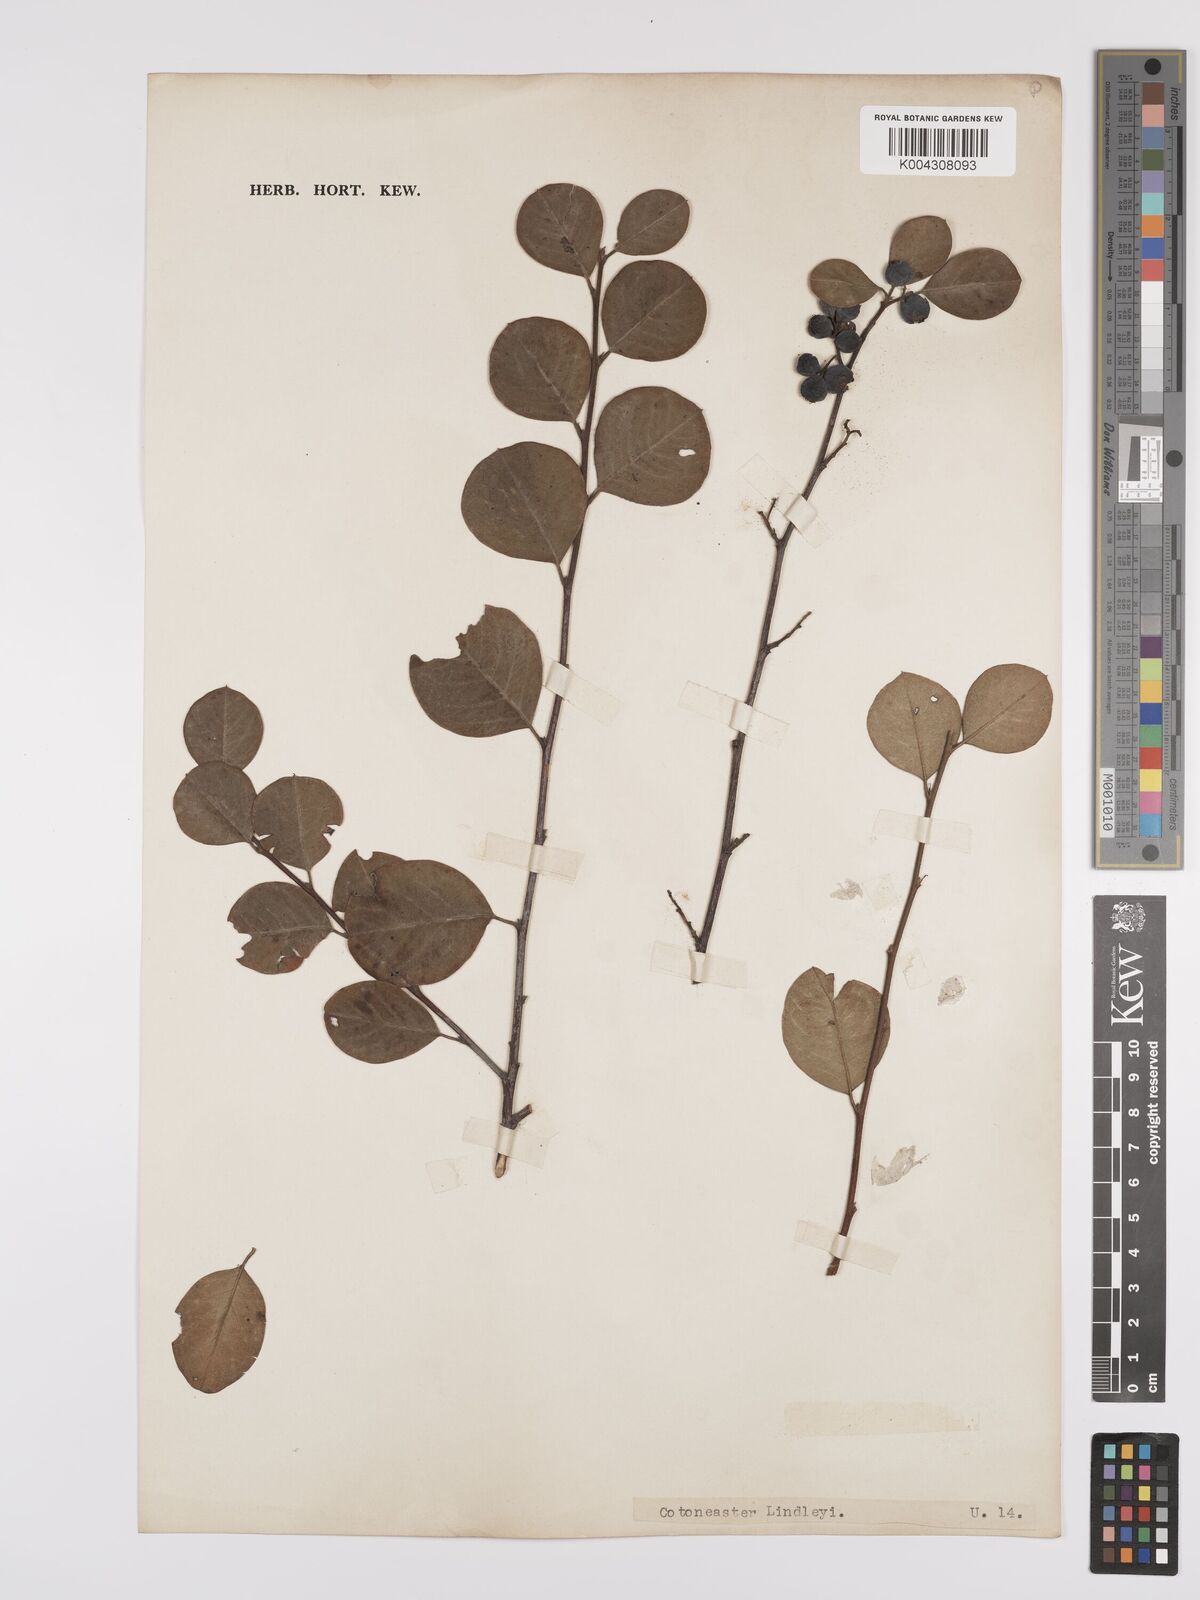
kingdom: Plantae
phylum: Tracheophyta
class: Magnoliopsida
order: Rosales
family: Rosaceae
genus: Cotoneaster
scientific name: Cotoneaster lindleyi
